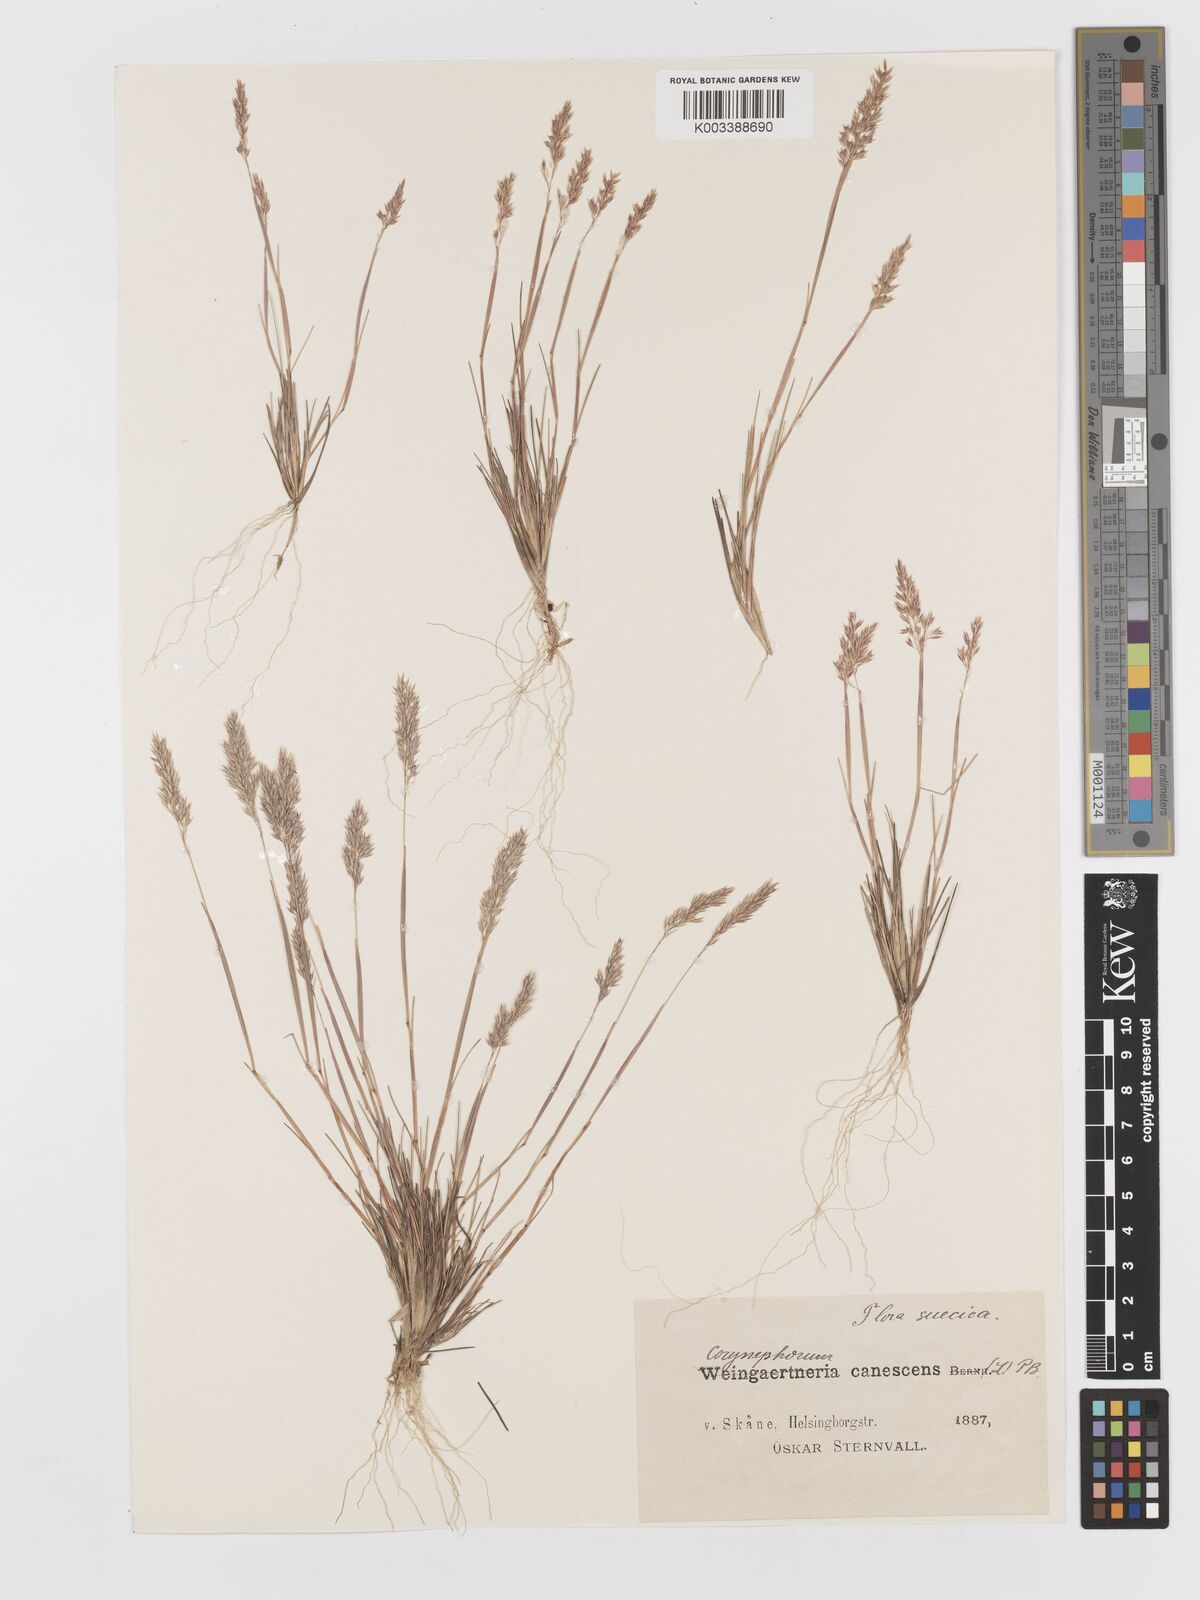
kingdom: Plantae
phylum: Tracheophyta
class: Liliopsida
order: Poales
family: Poaceae
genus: Corynephorus
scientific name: Corynephorus canescens
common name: Grey hair-grass
